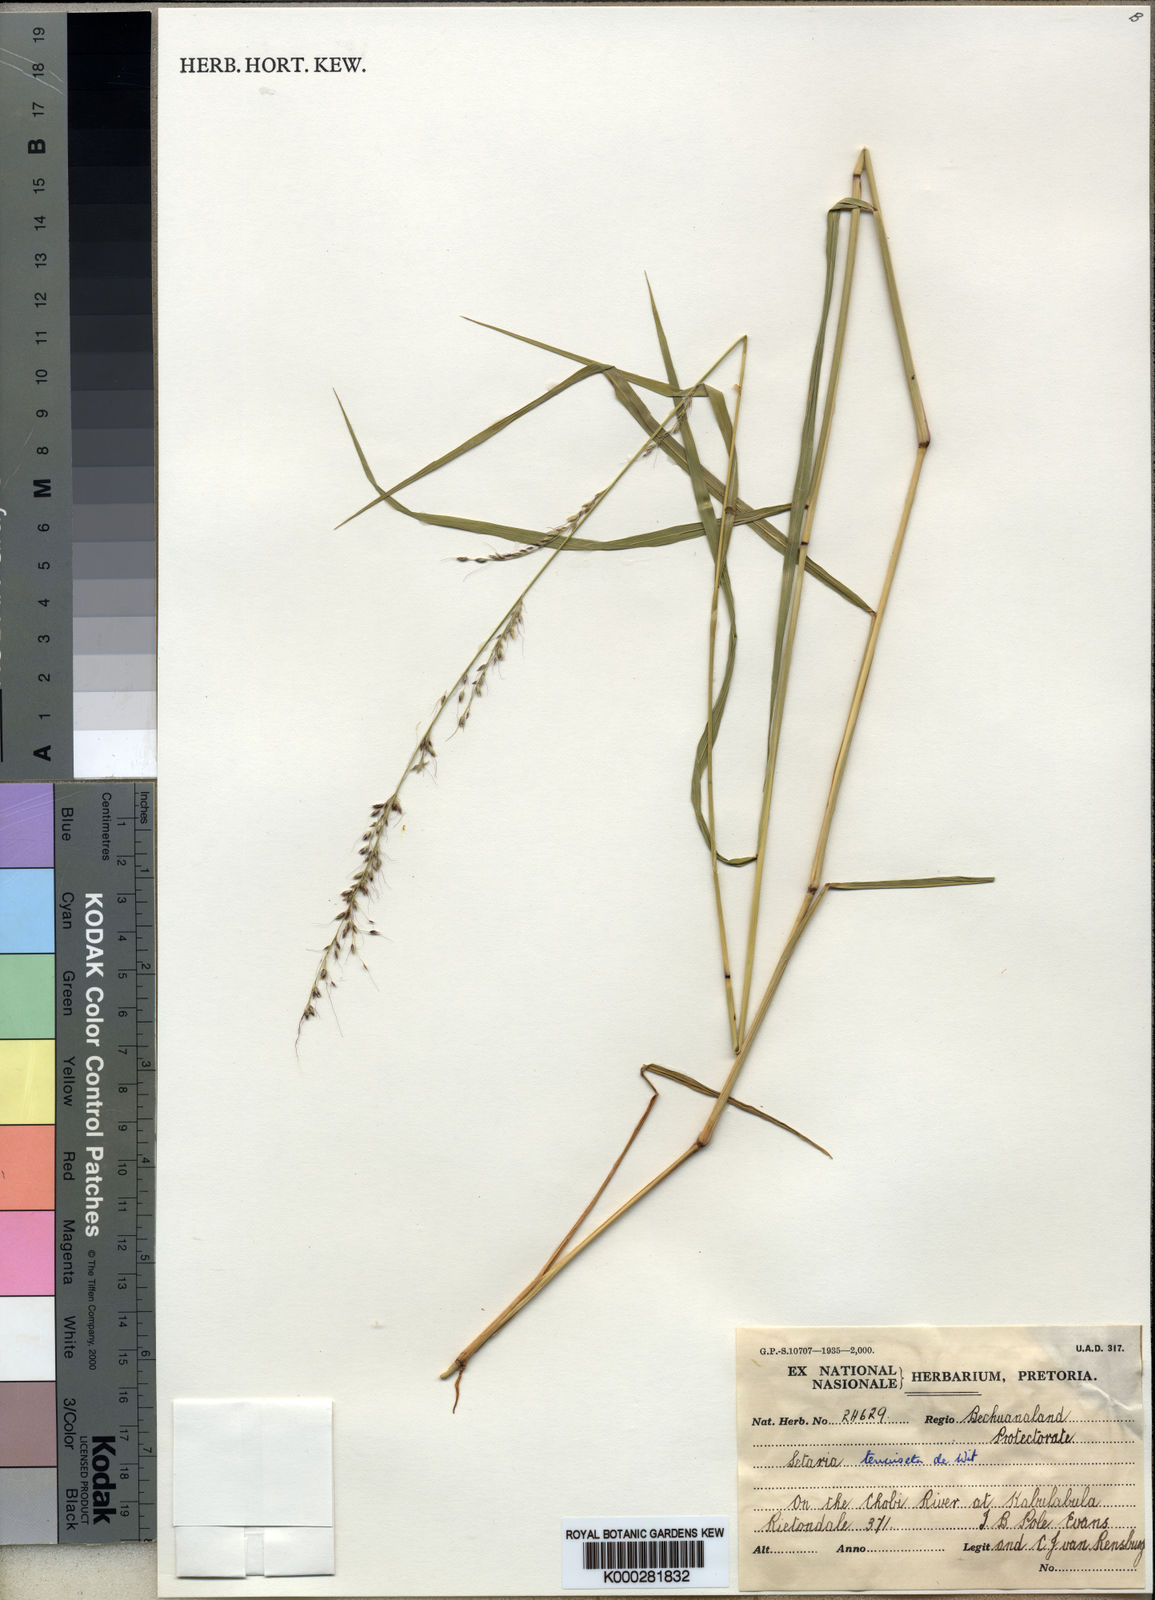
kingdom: Plantae
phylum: Tracheophyta
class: Liliopsida
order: Poales
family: Poaceae
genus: Setaria
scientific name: Setaria pseudaristata
